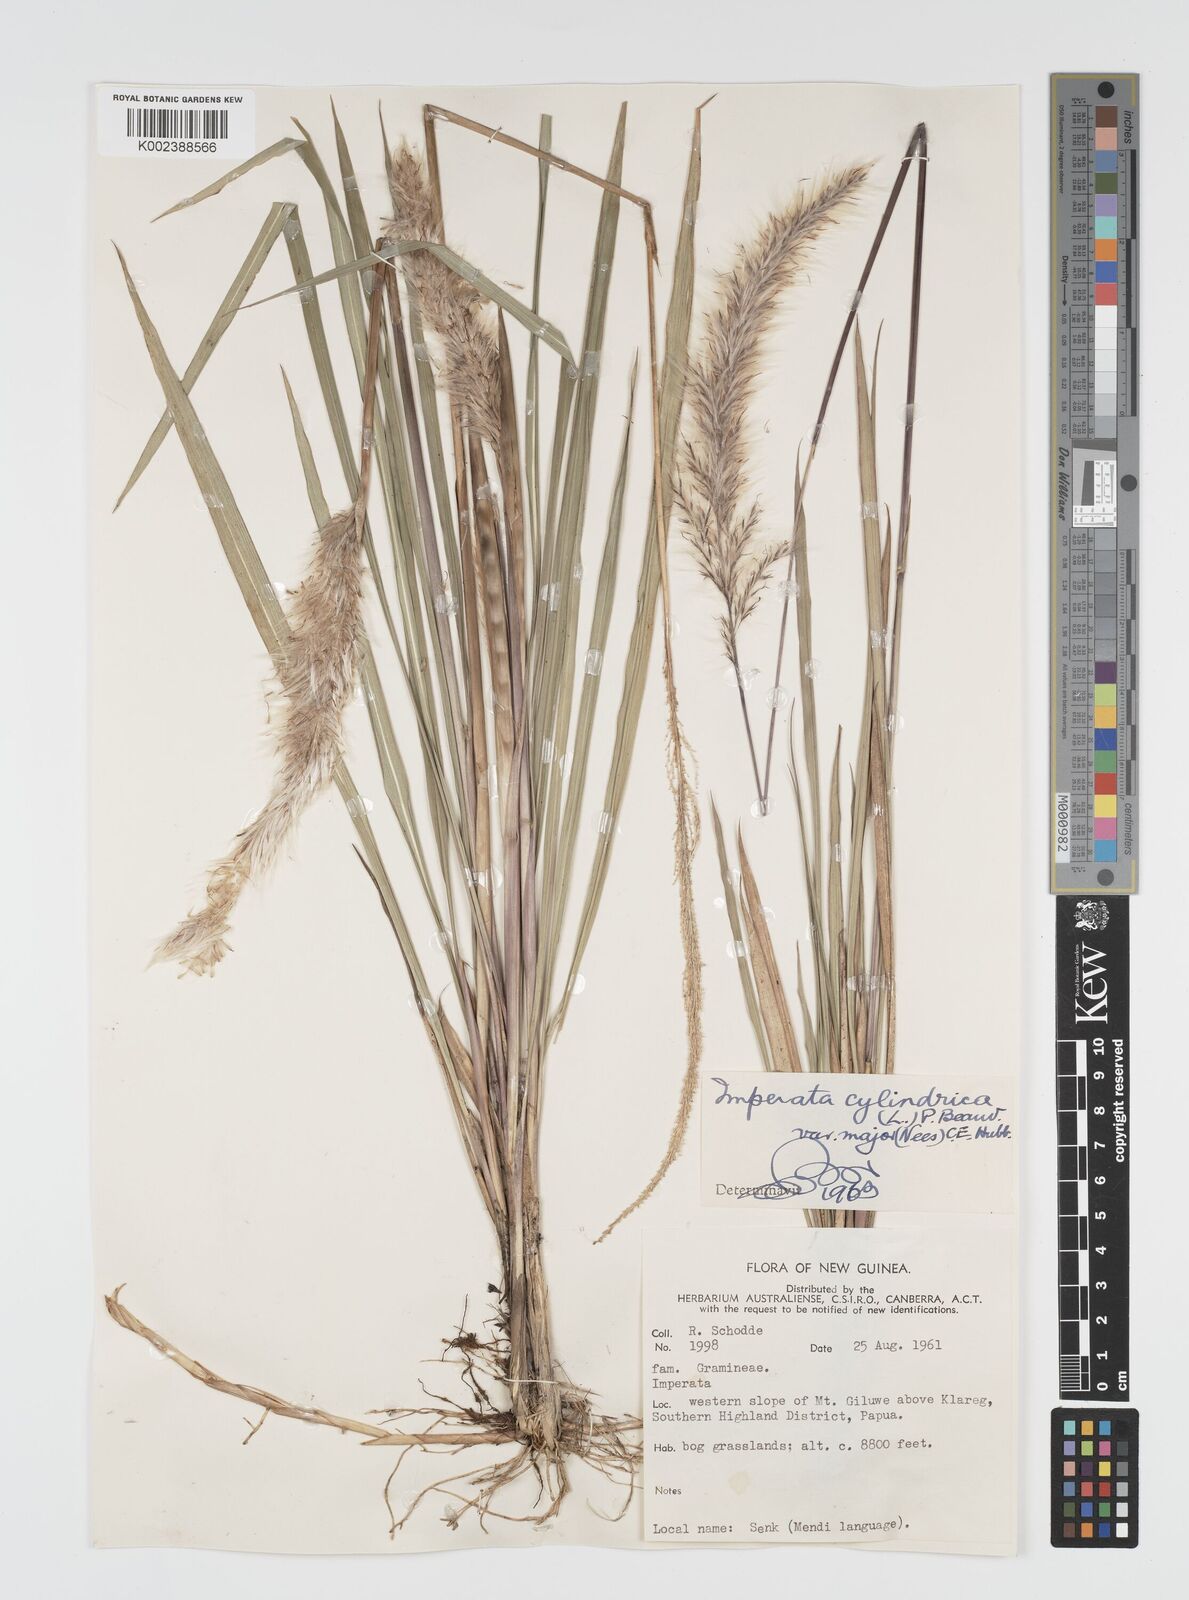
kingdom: Plantae
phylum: Tracheophyta
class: Liliopsida
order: Poales
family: Poaceae
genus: Imperata
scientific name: Imperata cylindrica
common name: Cogongrass
